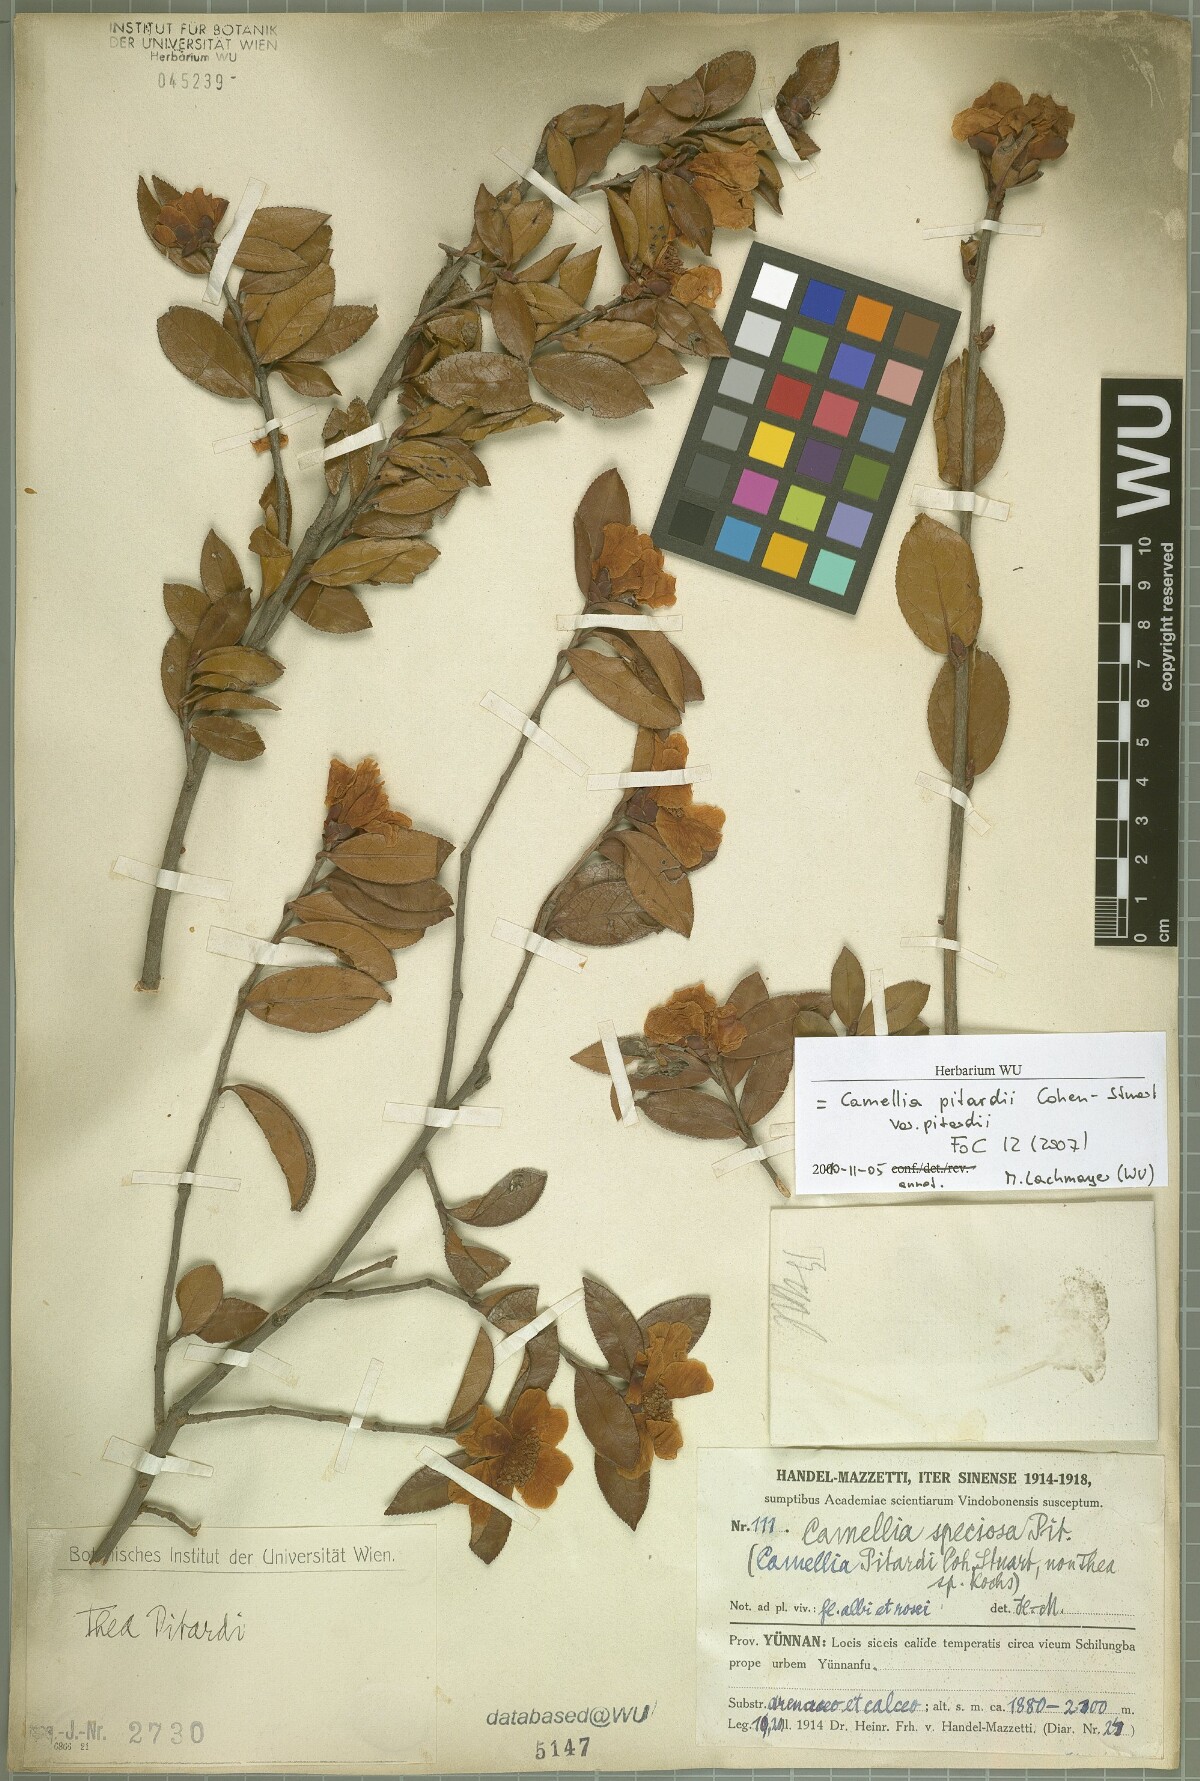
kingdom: Plantae
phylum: Tracheophyta
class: Magnoliopsida
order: Ericales
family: Theaceae
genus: Camellia
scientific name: Camellia pitardii
